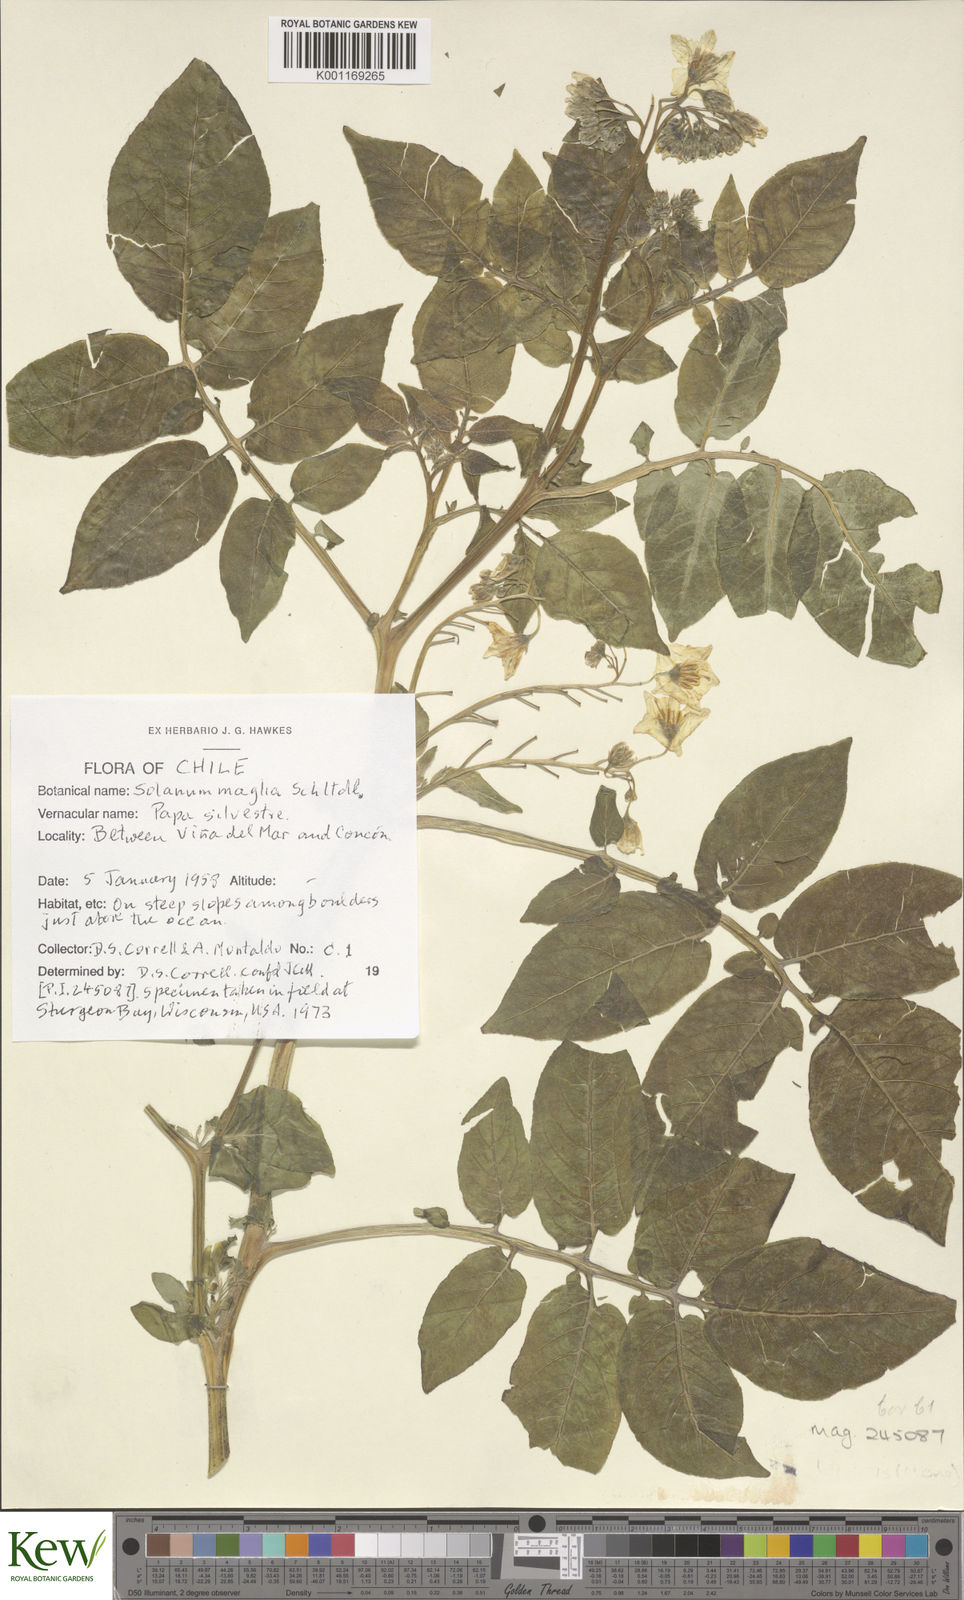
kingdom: Plantae
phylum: Tracheophyta
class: Magnoliopsida
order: Solanales
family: Solanaceae
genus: Solanum
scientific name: Solanum maglia
